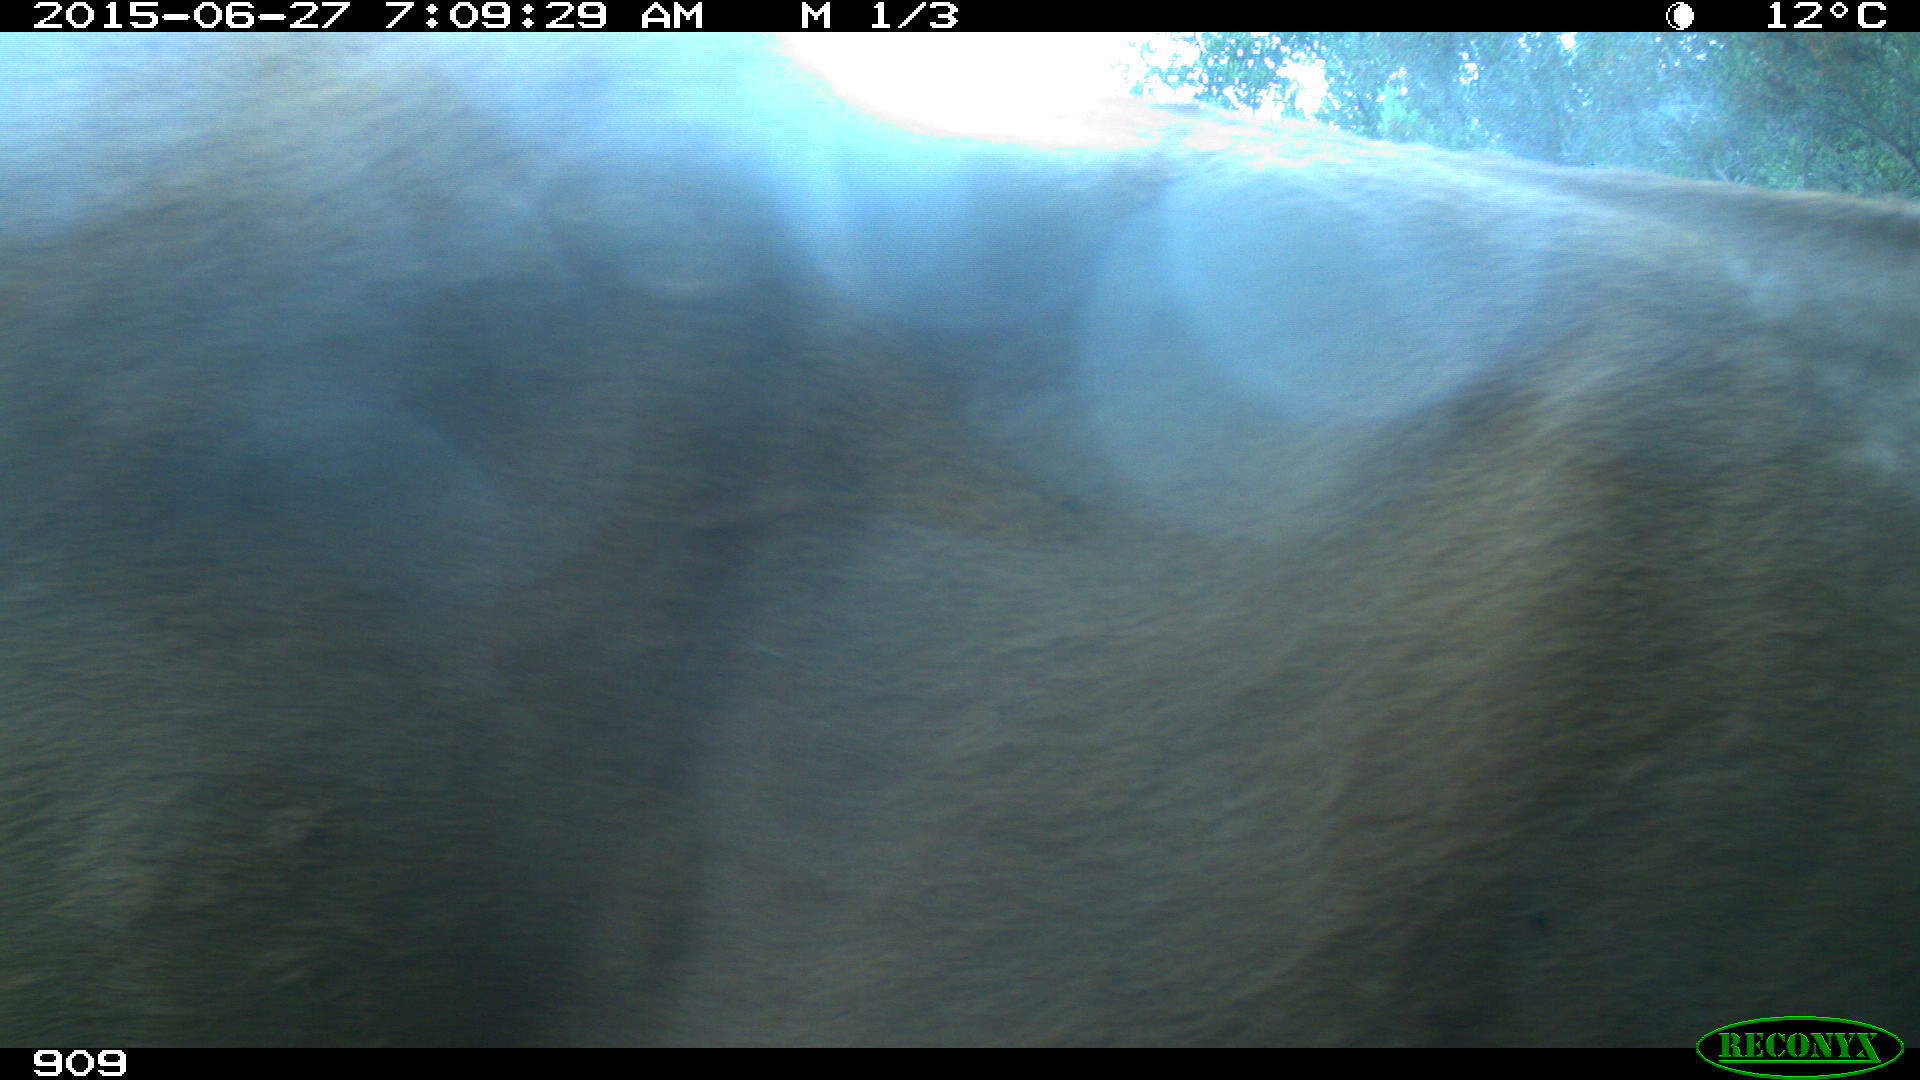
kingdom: Animalia
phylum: Chordata
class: Mammalia
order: Artiodactyla
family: Bovidae
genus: Bos
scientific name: Bos taurus
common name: Domesticated cattle
